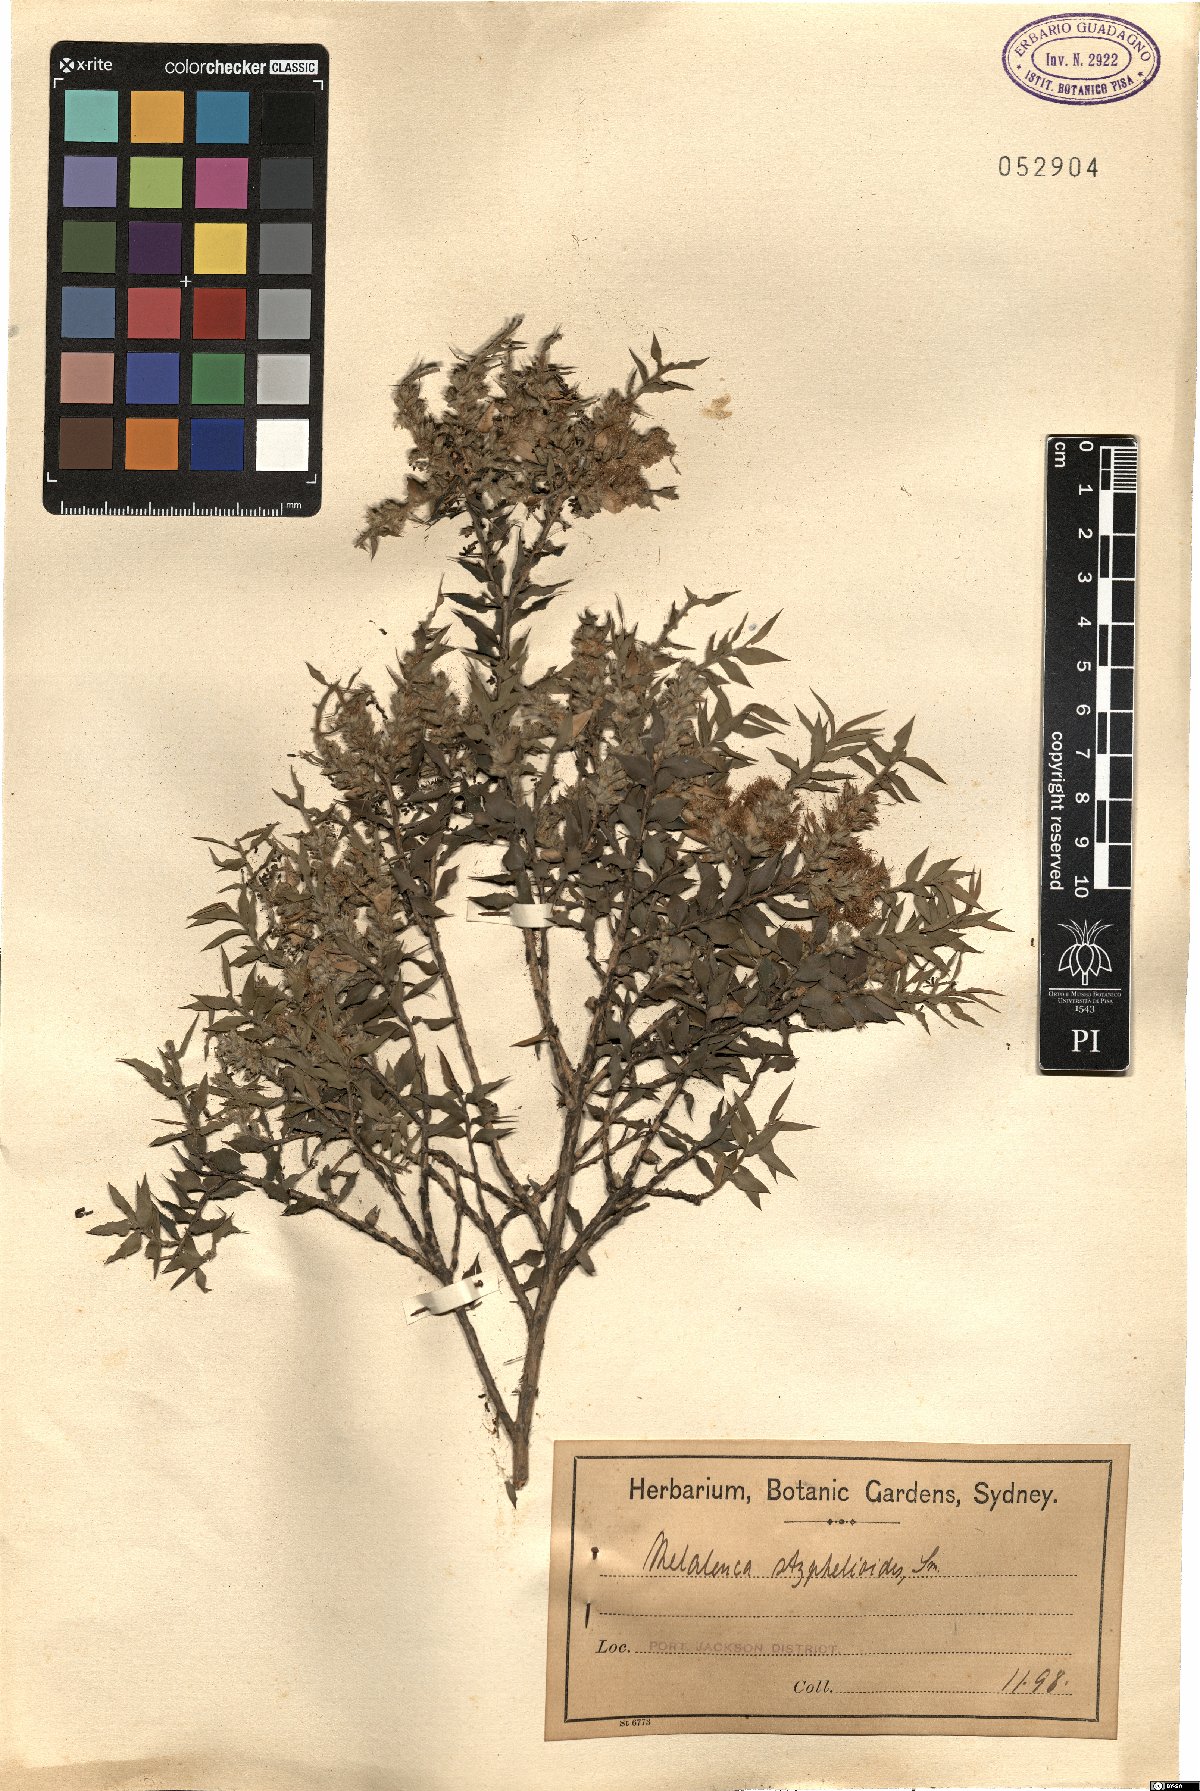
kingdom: Plantae
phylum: Tracheophyta
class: Magnoliopsida
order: Myrtales
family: Myrtaceae
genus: Melaleuca
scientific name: Melaleuca styphelioides
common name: Prickly paperbark
